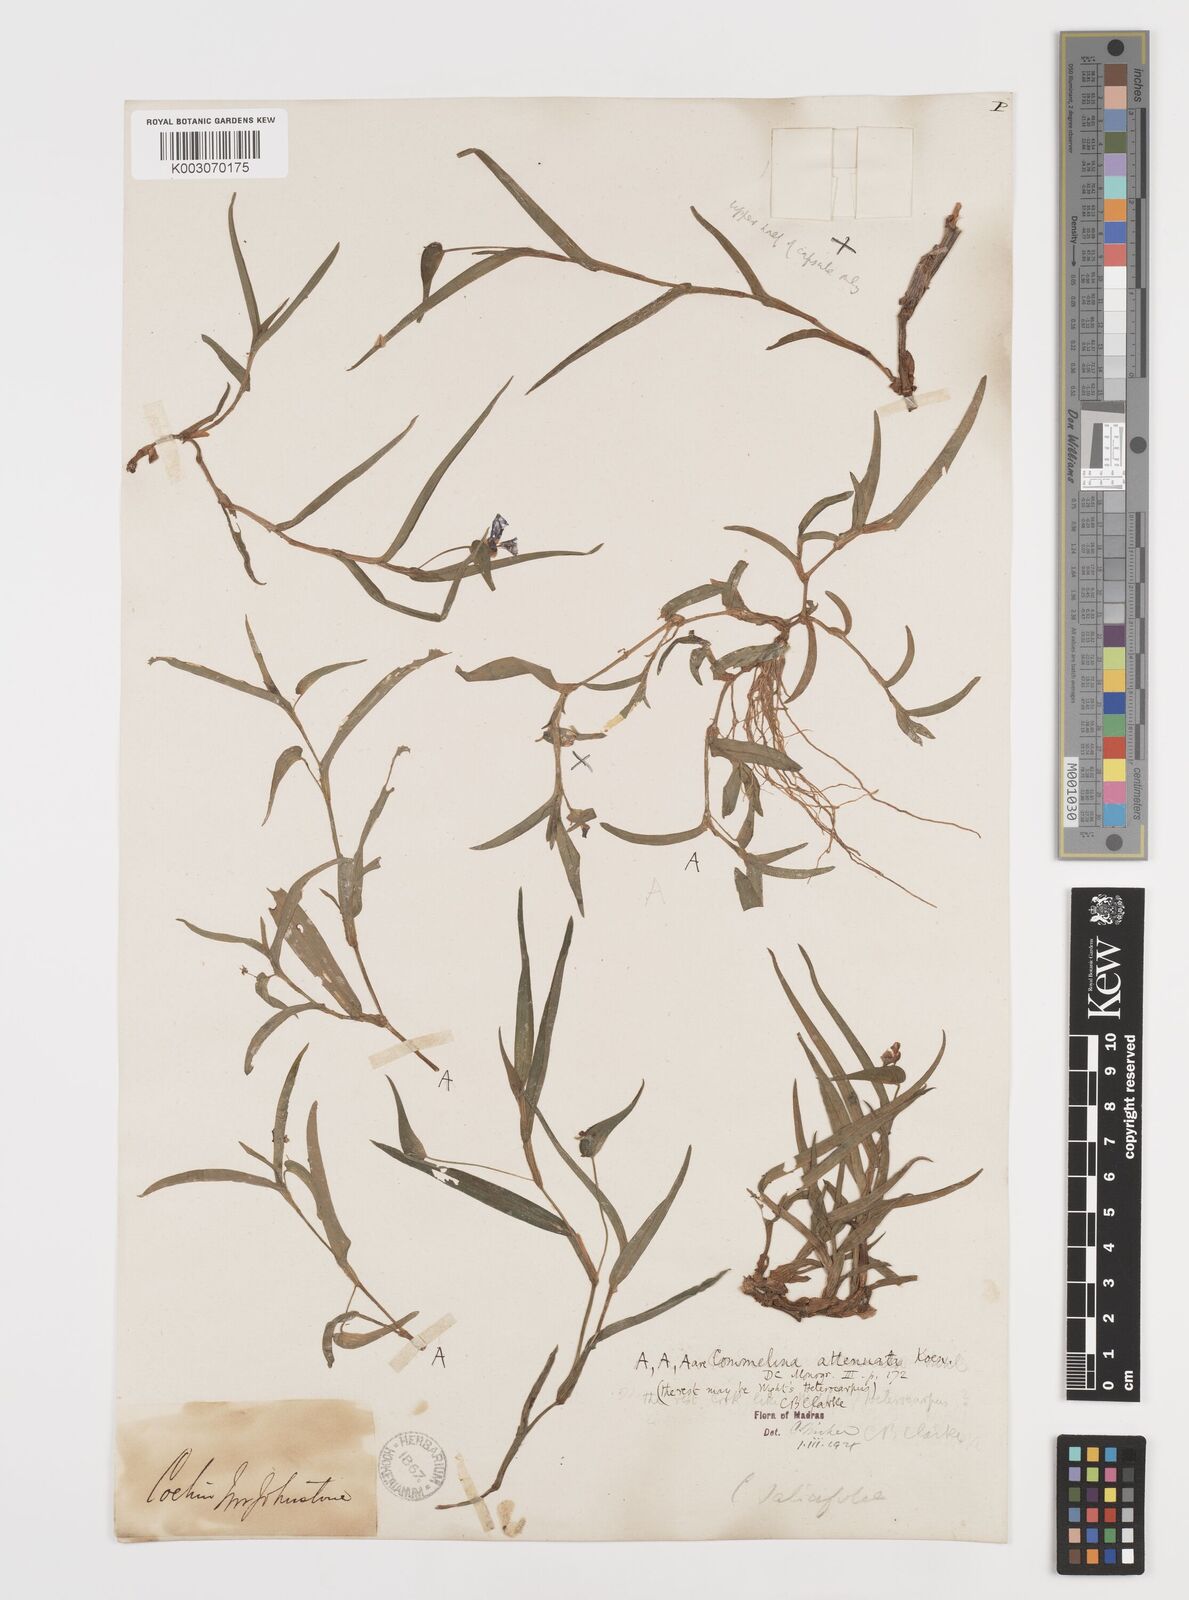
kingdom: Plantae
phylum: Tracheophyta
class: Liliopsida
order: Commelinales
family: Commelinaceae
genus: Commelina
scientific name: Commelina attenuata
